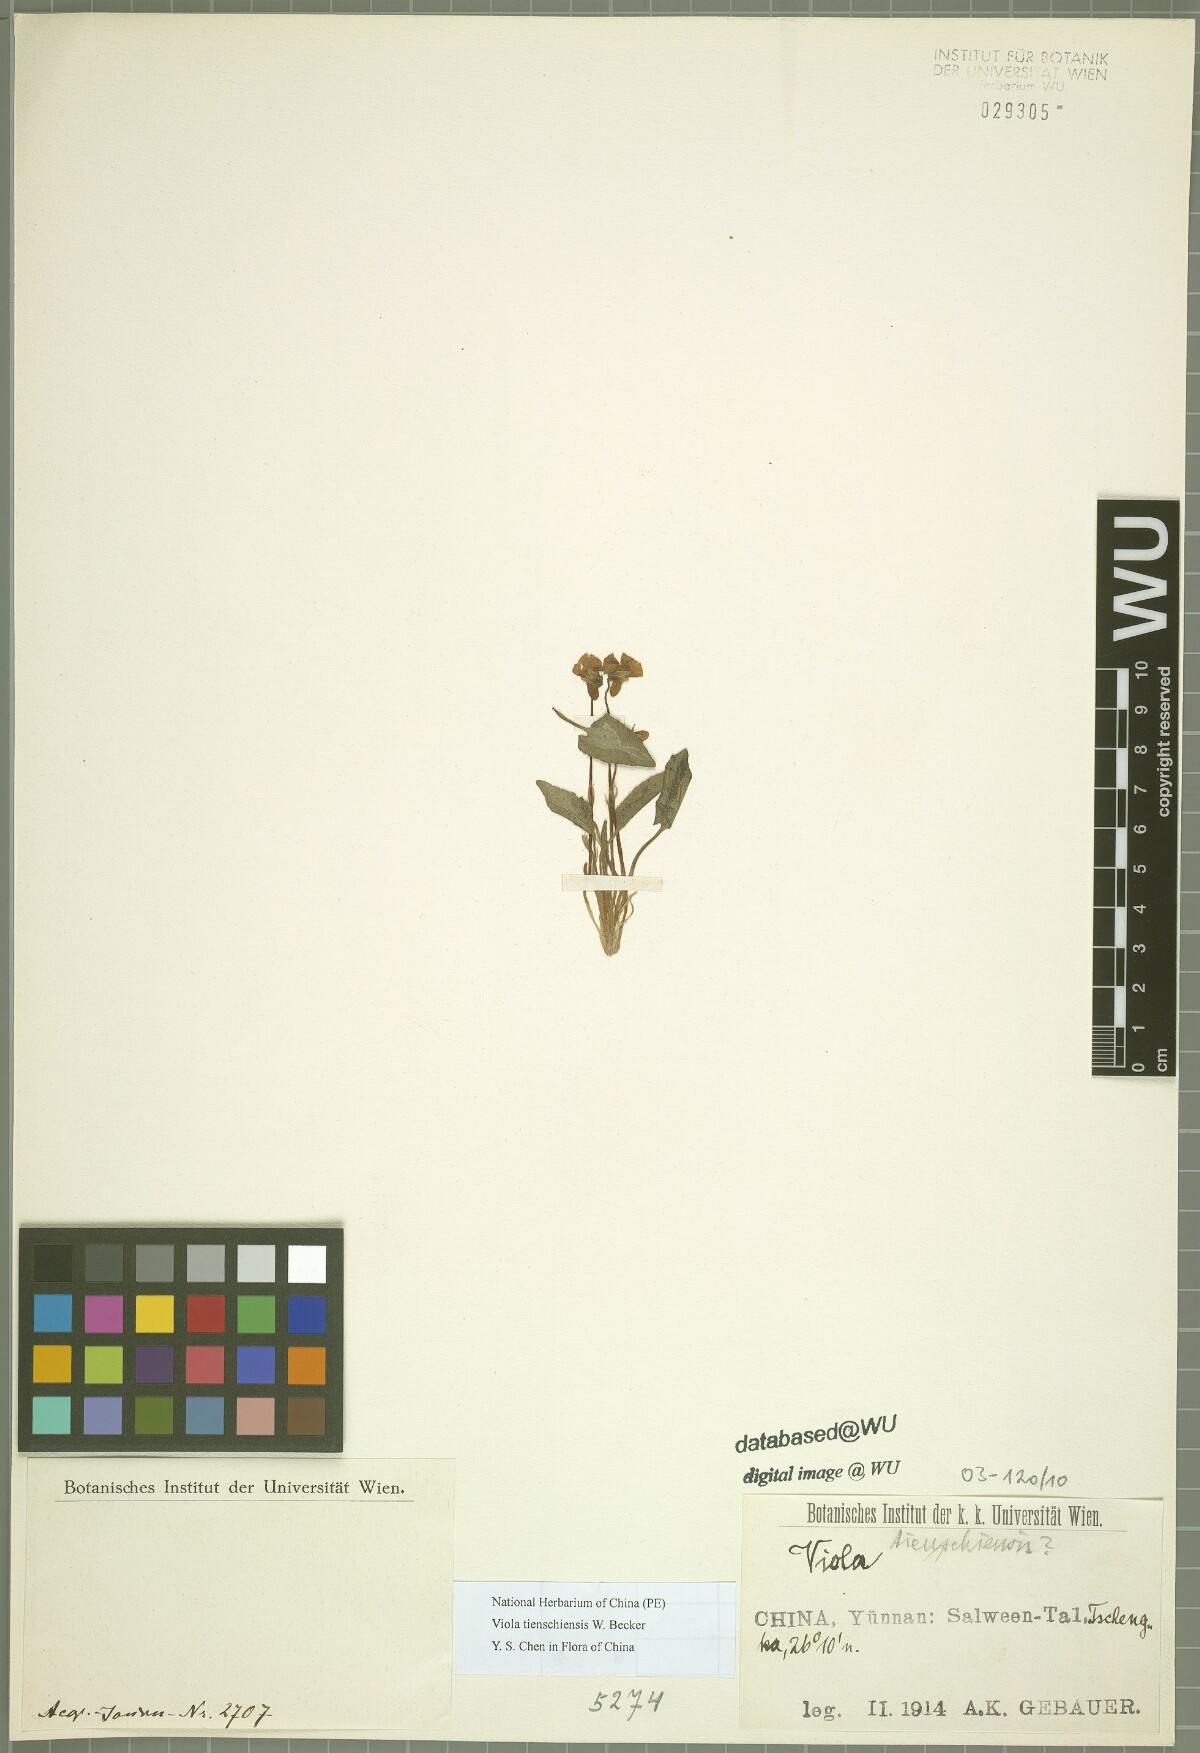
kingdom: Plantae
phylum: Tracheophyta
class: Magnoliopsida
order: Malpighiales
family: Violaceae
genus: Viola
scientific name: Viola tienschiensis
